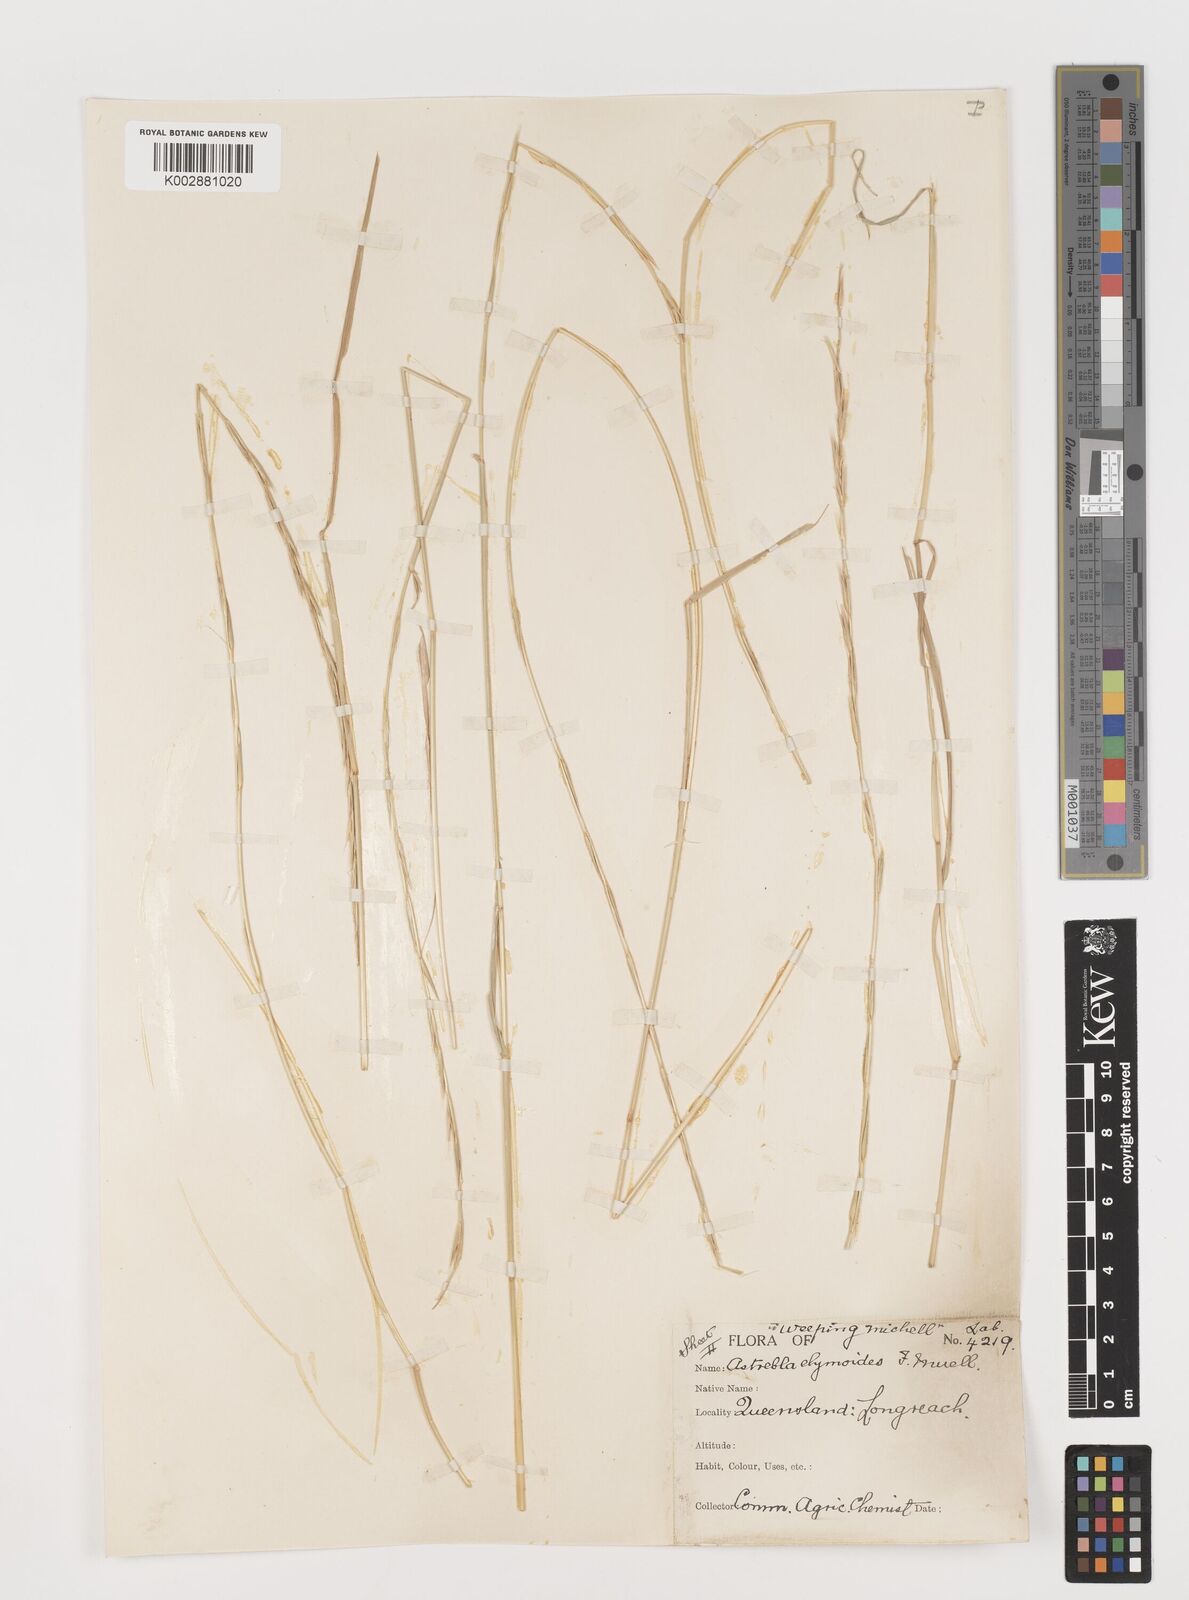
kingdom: Plantae
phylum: Tracheophyta
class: Liliopsida
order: Poales
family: Poaceae
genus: Astrebla
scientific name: Astrebla elymoides
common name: Hoop mitchell grass
